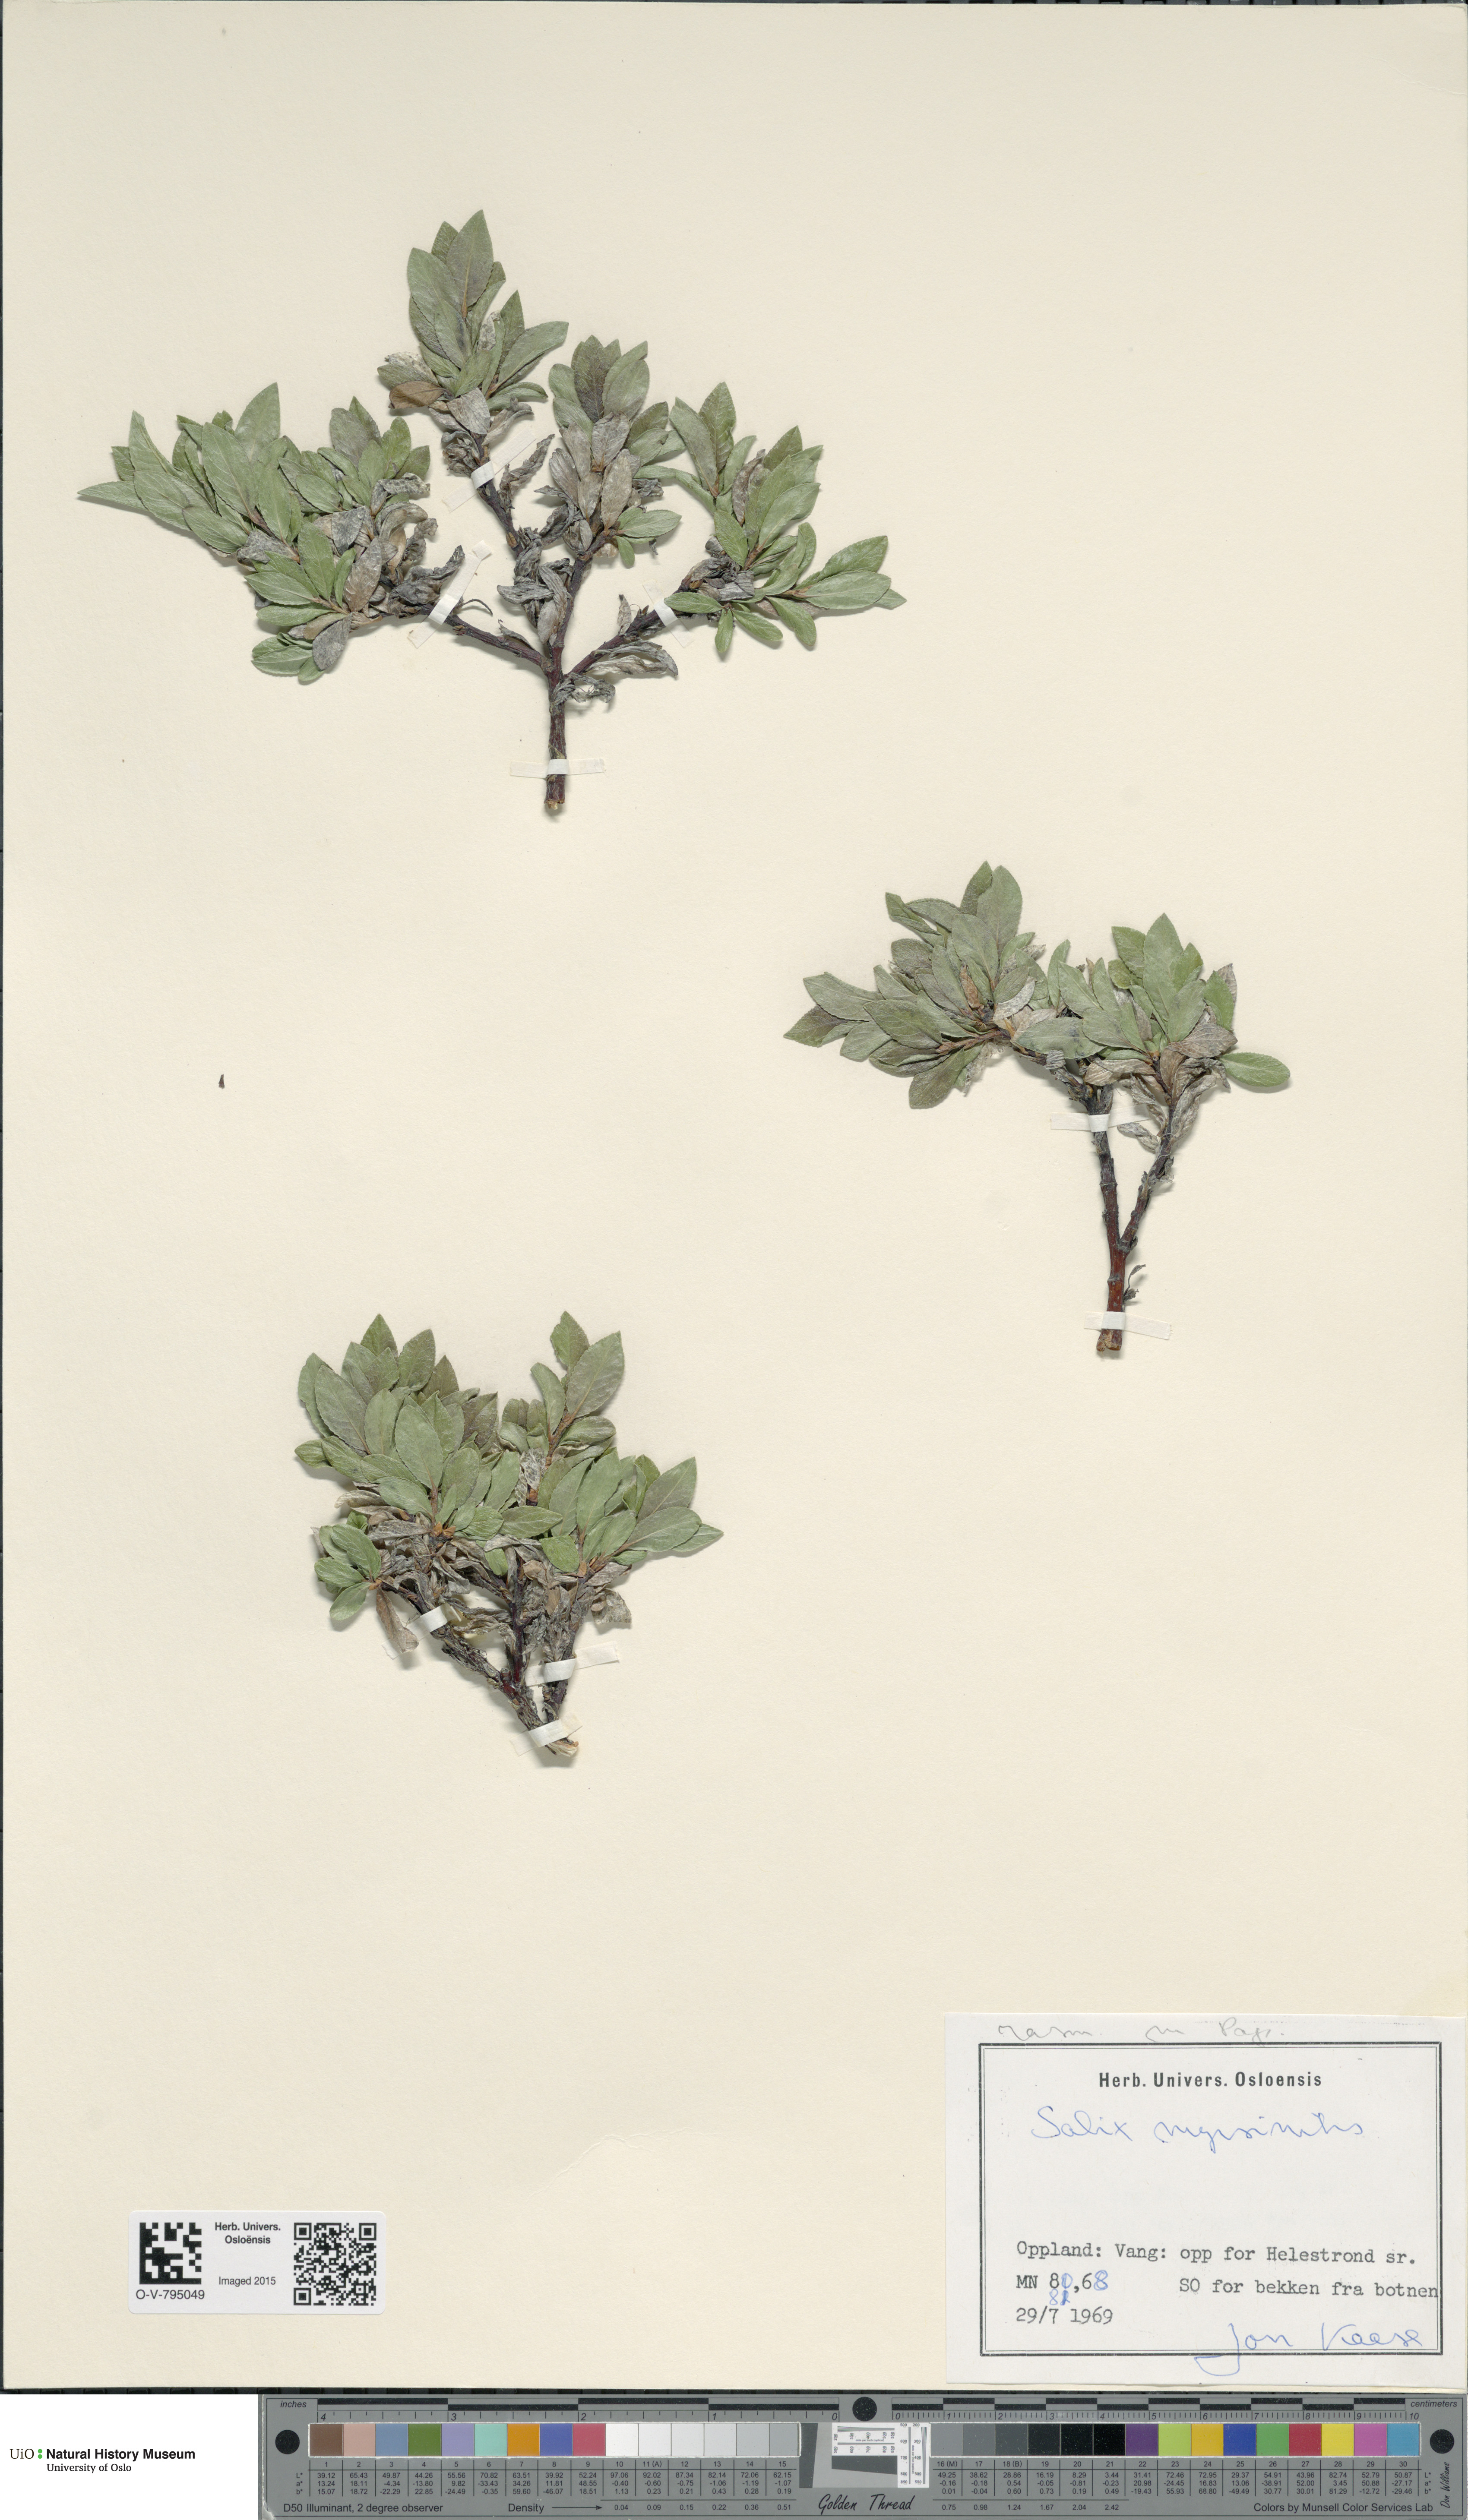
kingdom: Plantae
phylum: Tracheophyta
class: Magnoliopsida
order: Malpighiales
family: Salicaceae
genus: Salix
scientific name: Salix myrsinites
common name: Myrtle willow
